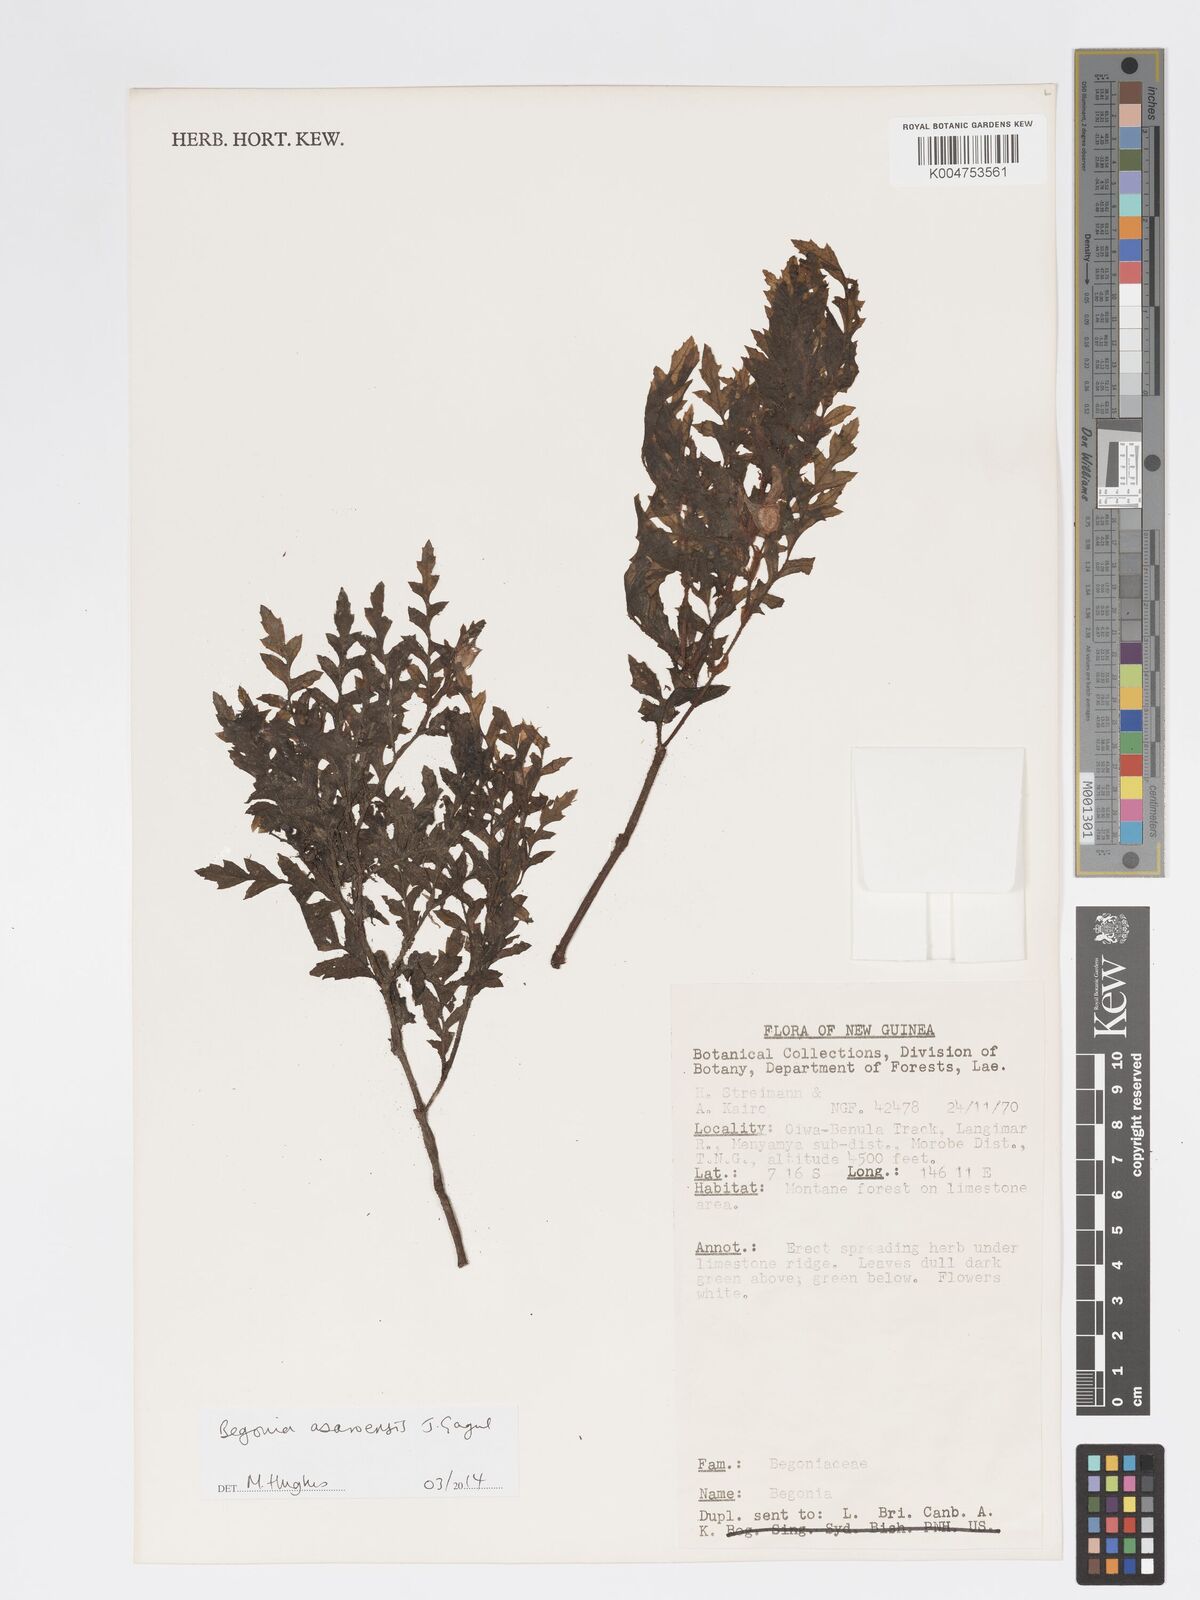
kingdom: Plantae
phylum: Tracheophyta
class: Magnoliopsida
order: Cucurbitales
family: Begoniaceae
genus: Begonia
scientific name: Begonia asaroensis
